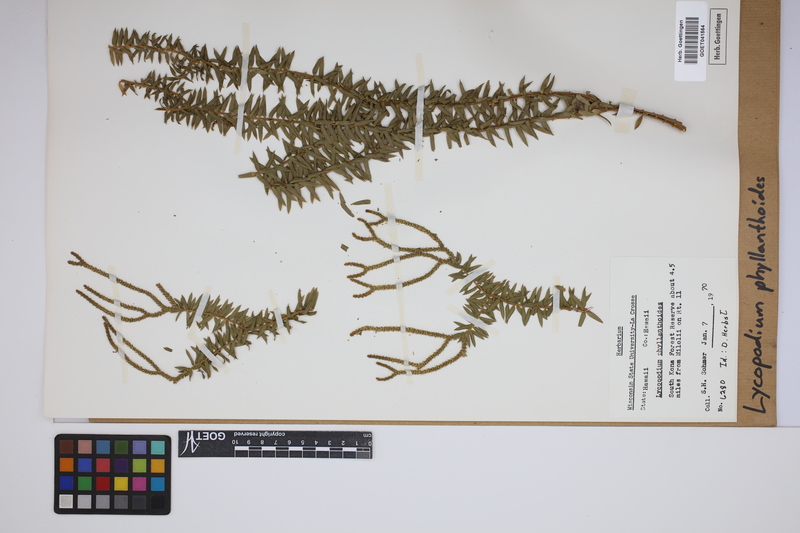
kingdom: Plantae
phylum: Tracheophyta
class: Lycopodiopsida
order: Lycopodiales
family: Lycopodiaceae
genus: Phlegmariurus
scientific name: Phlegmariurus phyllanthus
